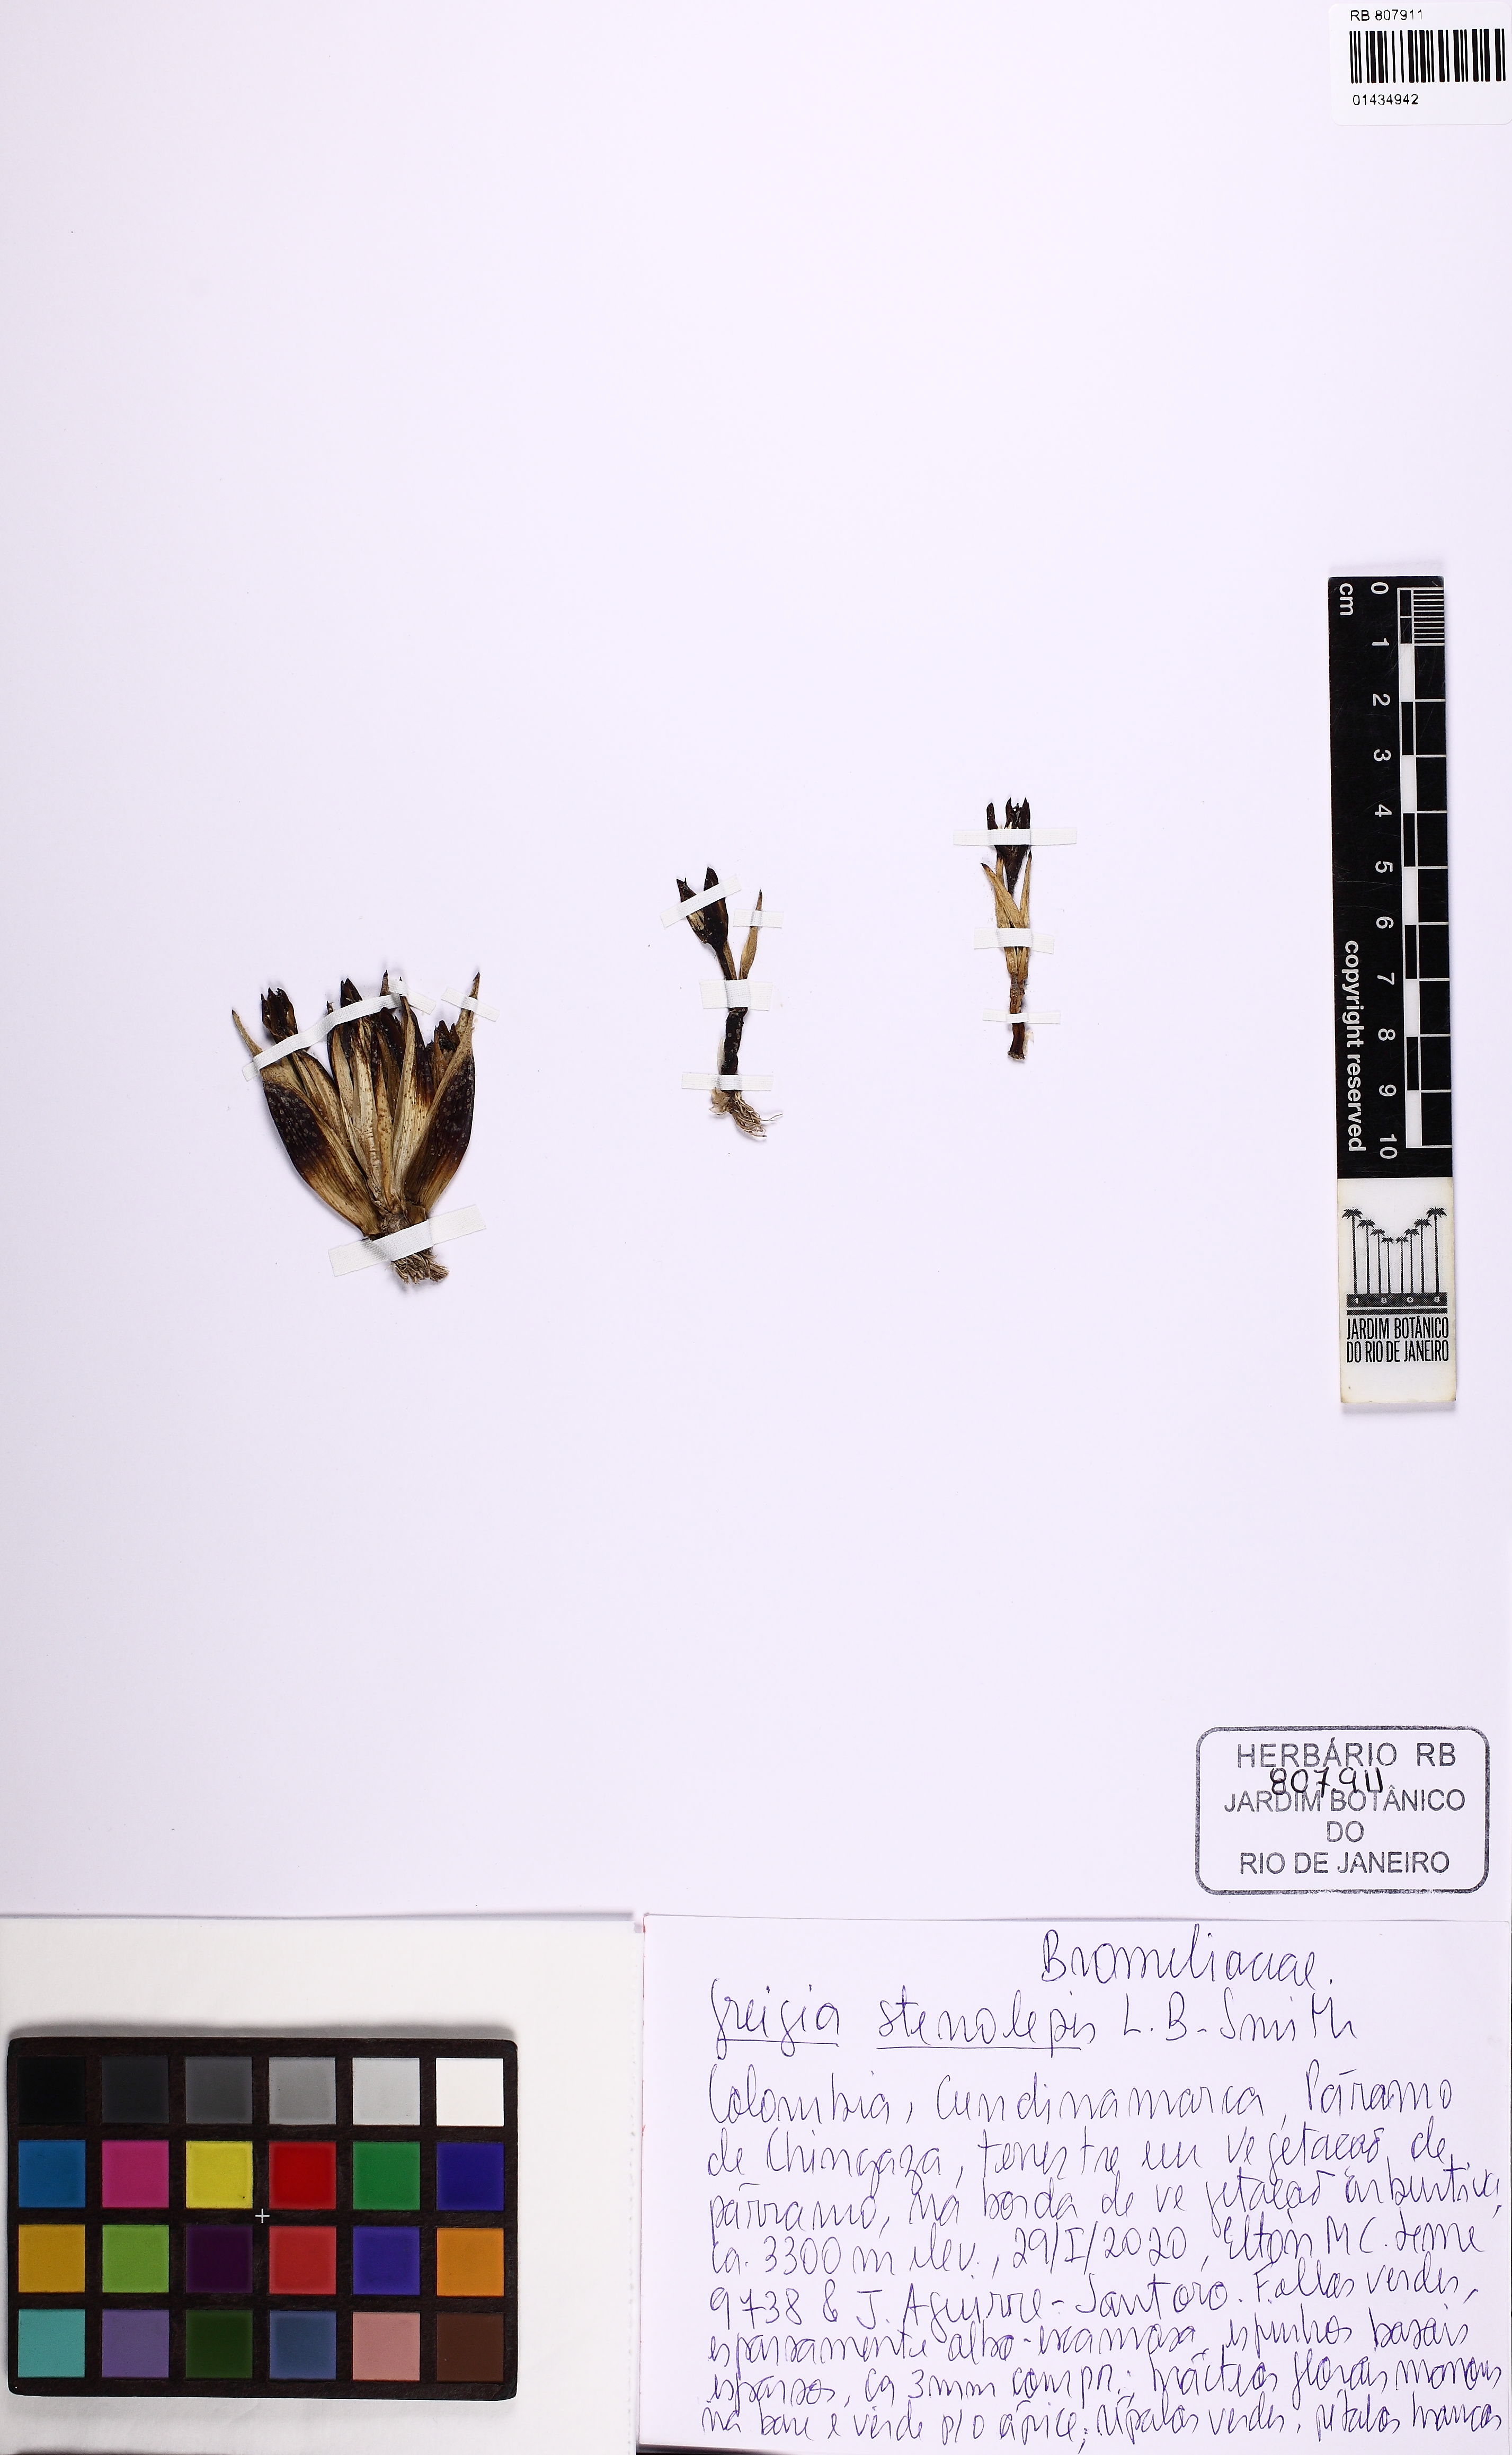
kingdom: Plantae
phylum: Tracheophyta
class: Liliopsida
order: Poales
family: Bromeliaceae
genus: Greigia
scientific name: Greigia stenolepis
